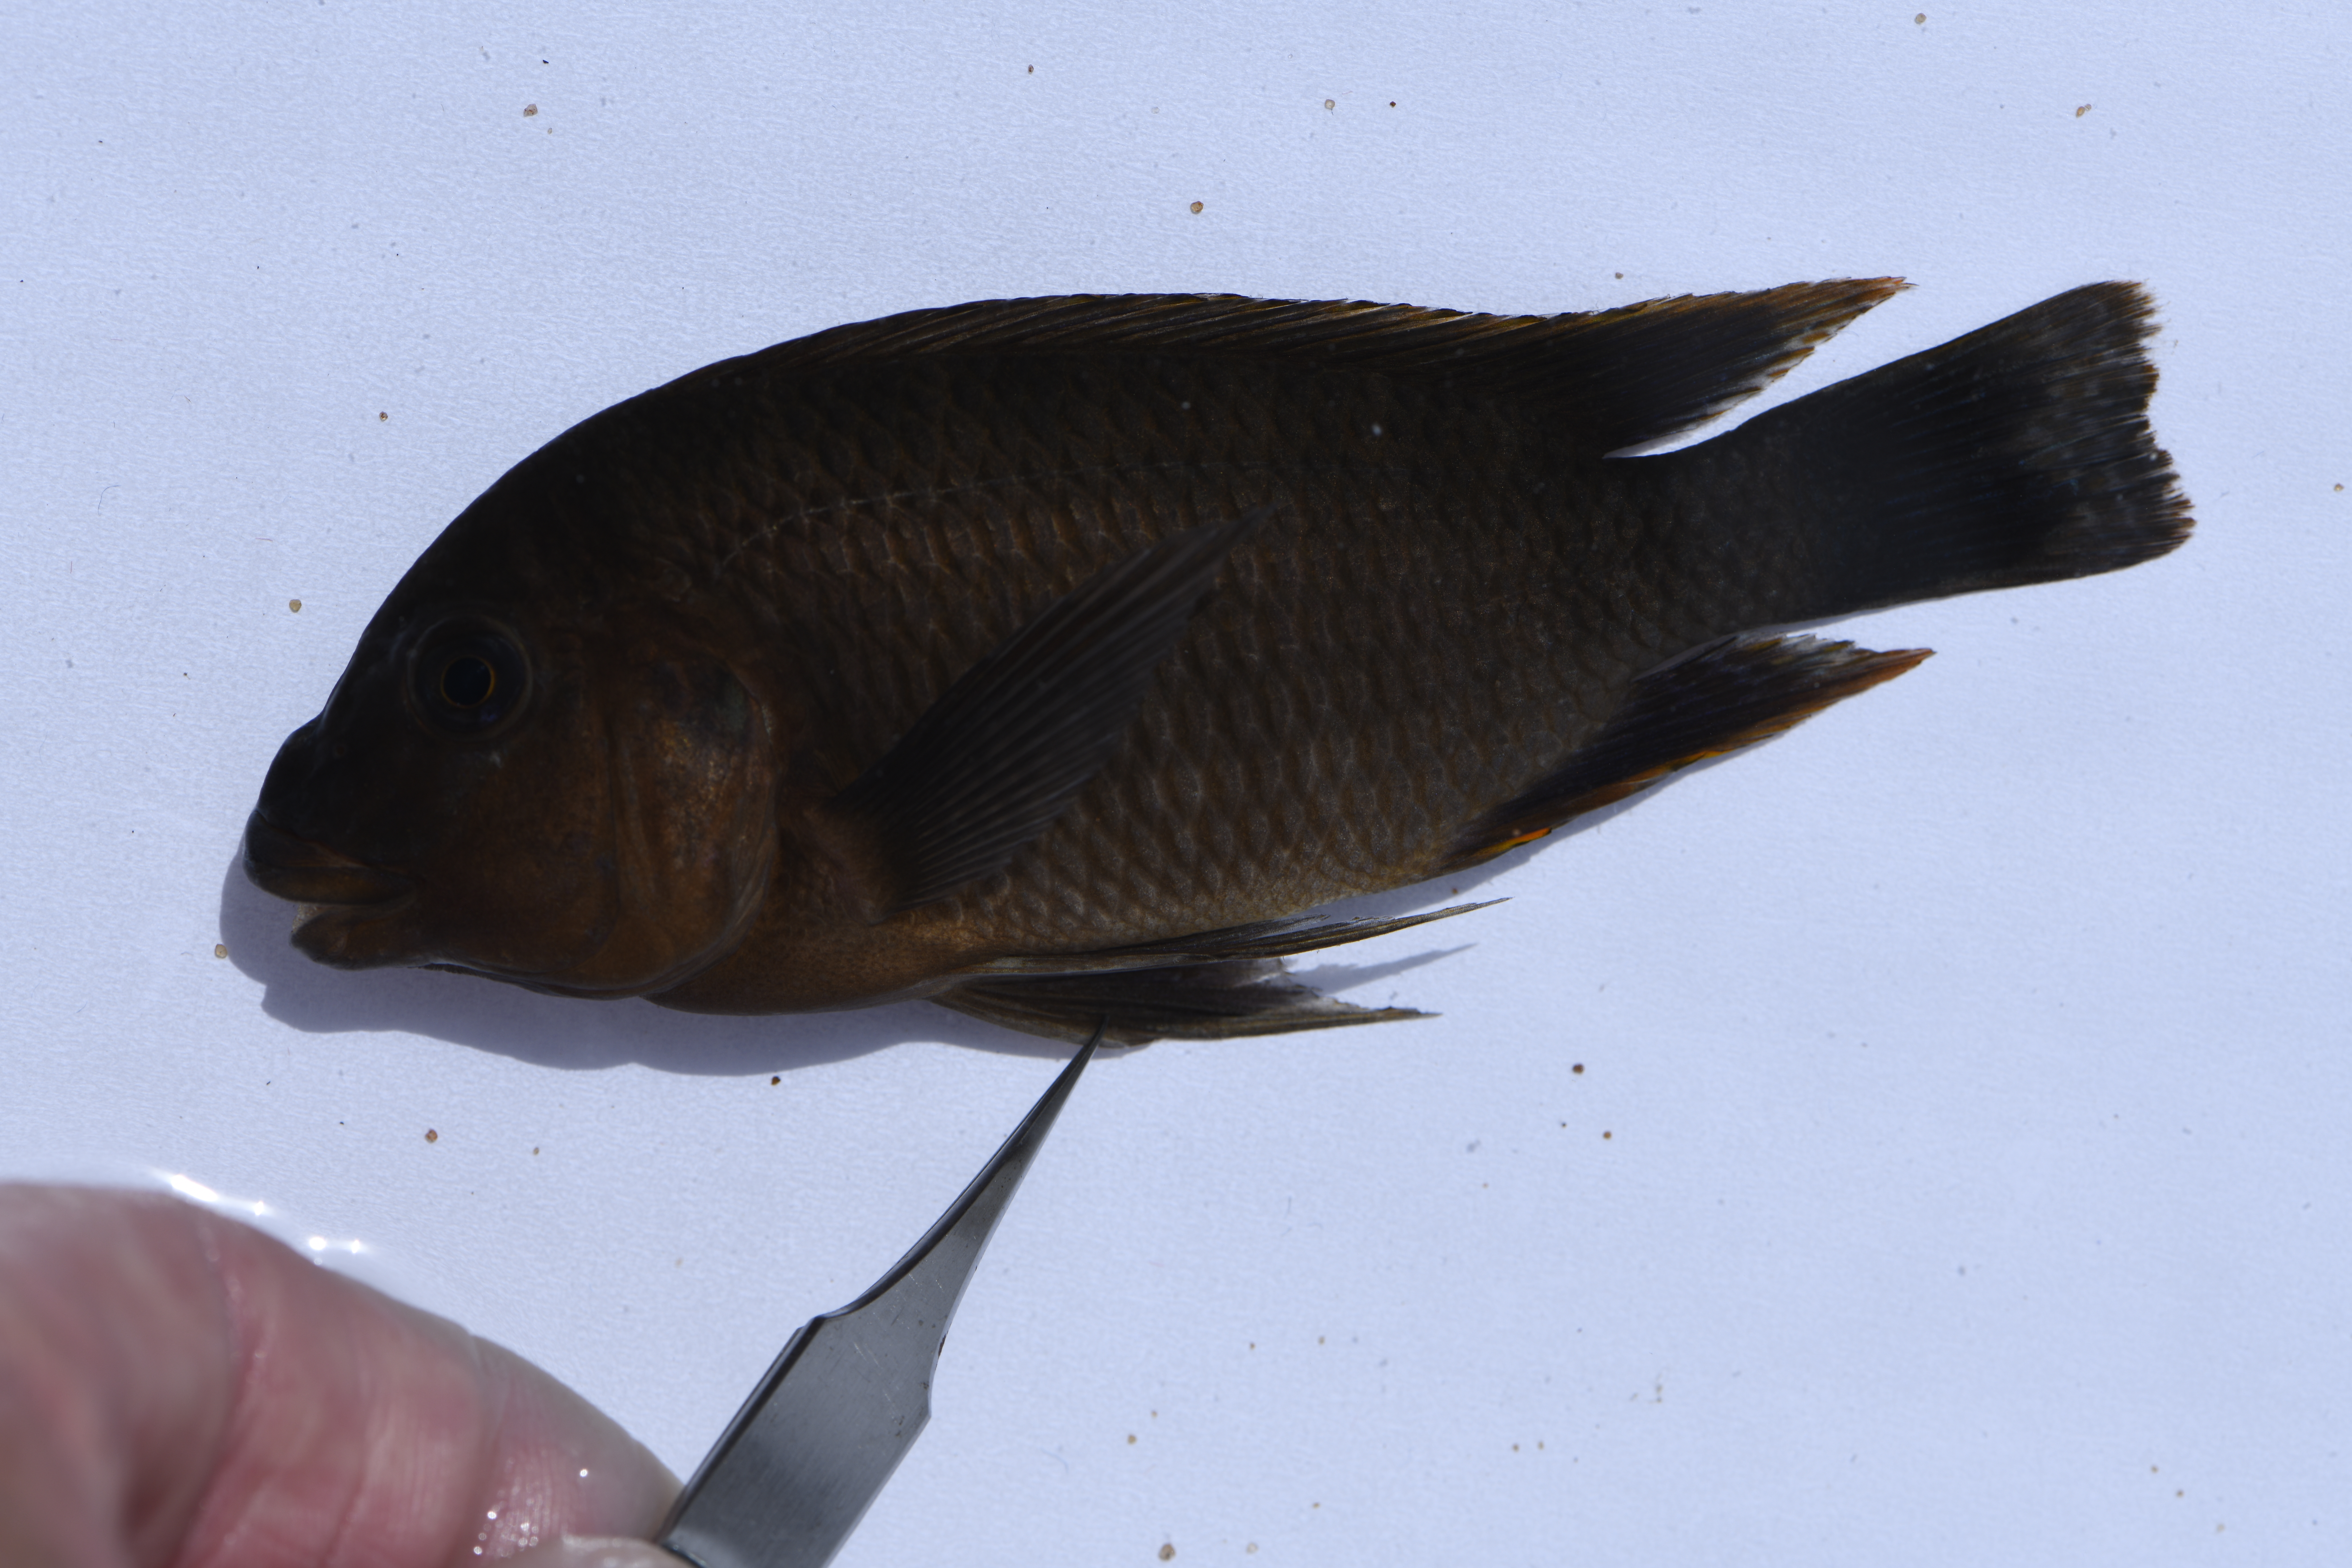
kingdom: Animalia
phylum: Chordata
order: Perciformes
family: Cichlidae
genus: Petrochromis
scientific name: Petrochromis famula
